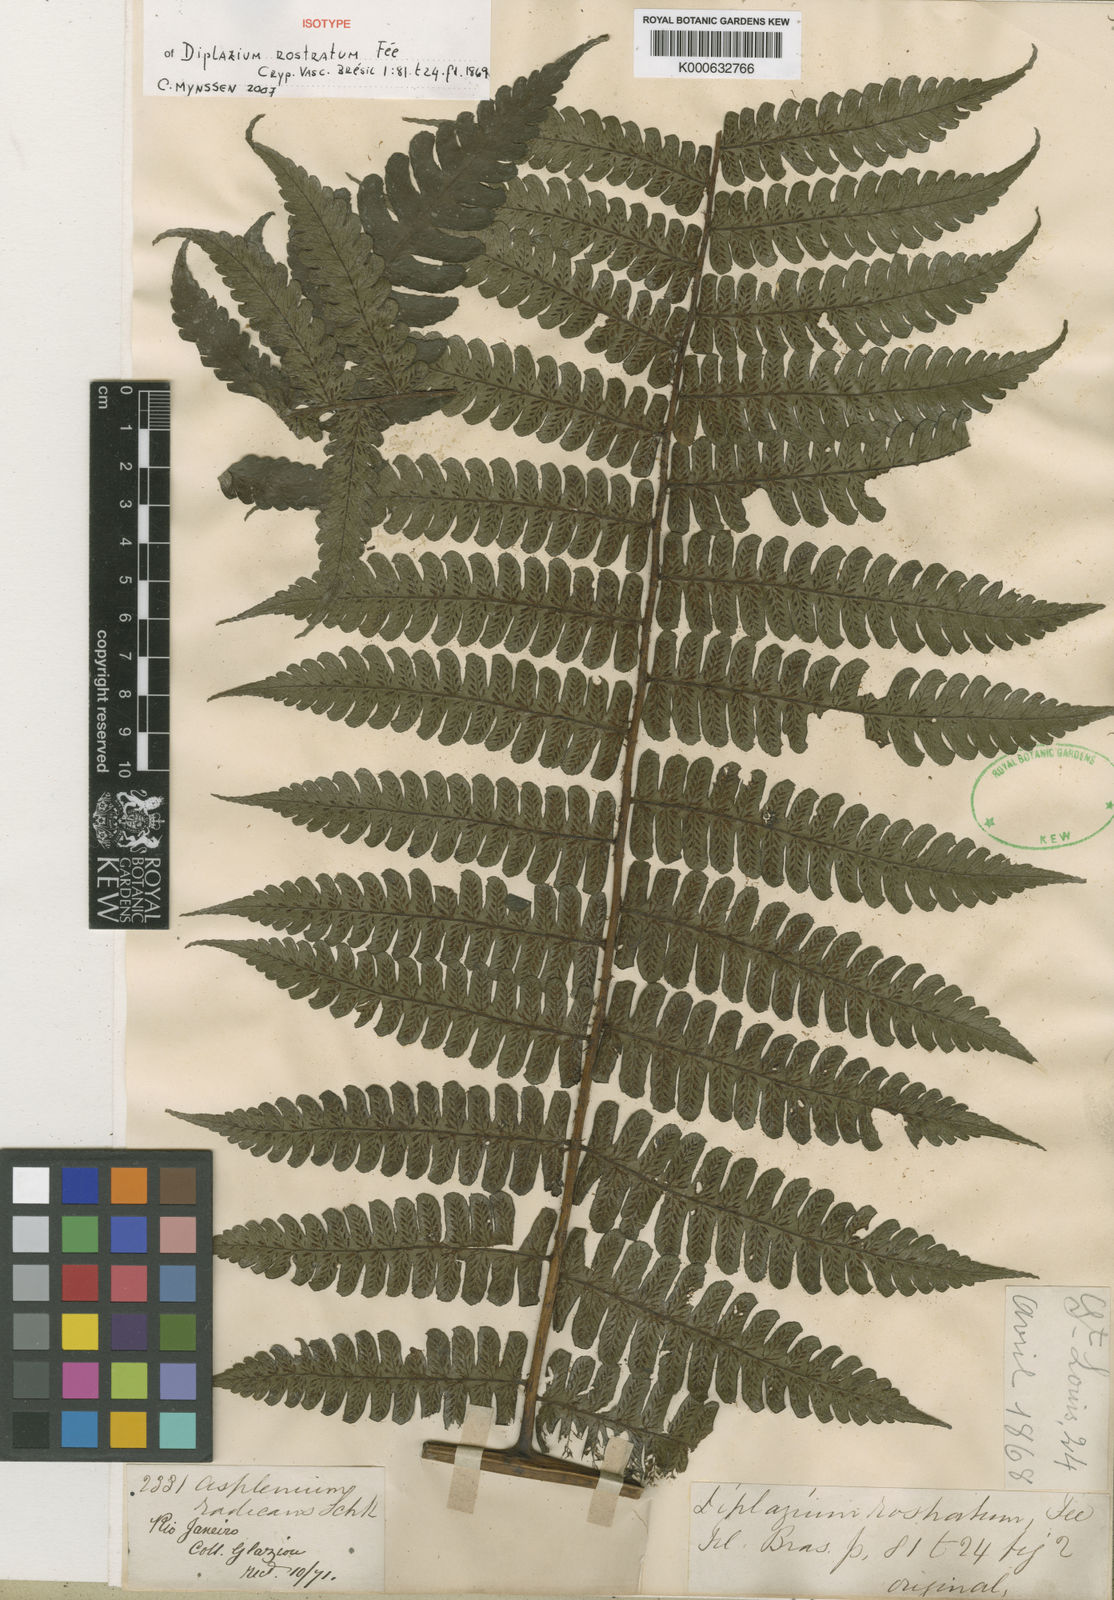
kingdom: Plantae
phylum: Tracheophyta
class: Polypodiopsida
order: Polypodiales
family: Athyriaceae
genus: Diplazium
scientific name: Diplazium
